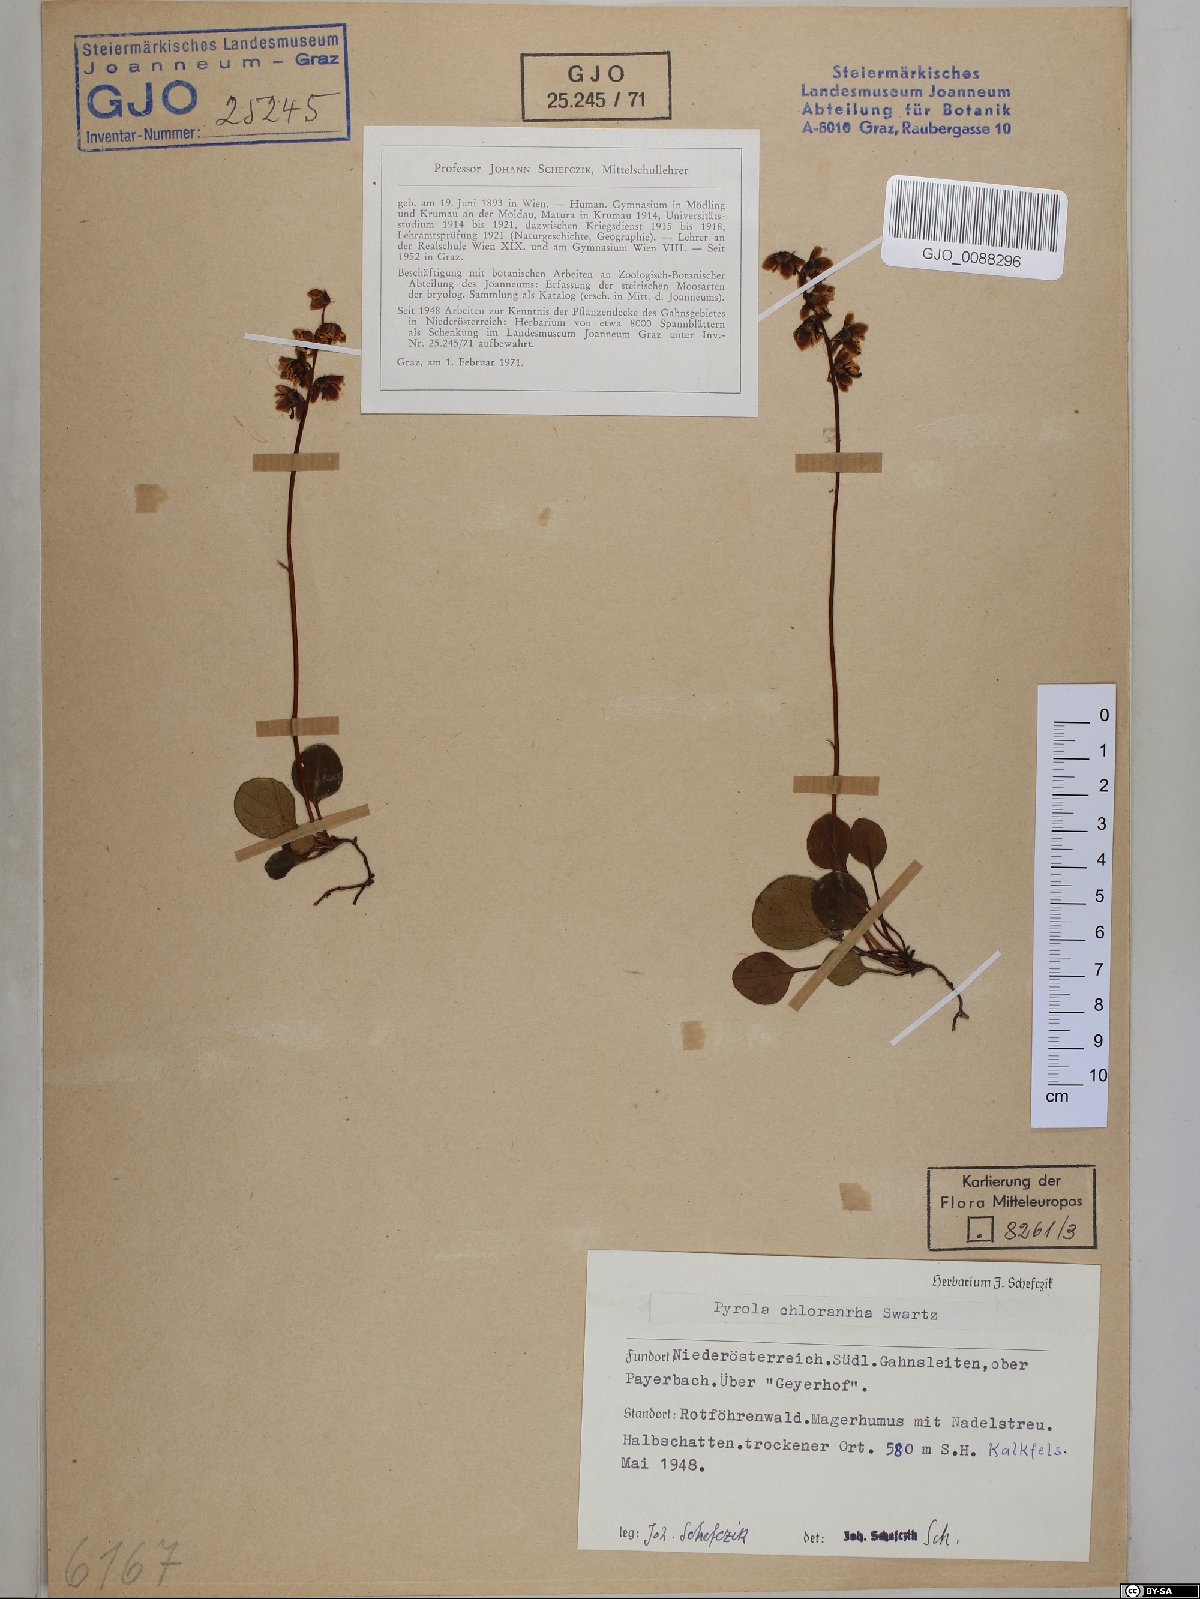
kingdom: Plantae
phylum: Tracheophyta
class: Magnoliopsida
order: Ericales
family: Ericaceae
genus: Pyrola
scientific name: Pyrola chlorantha
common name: Green wintergreen
